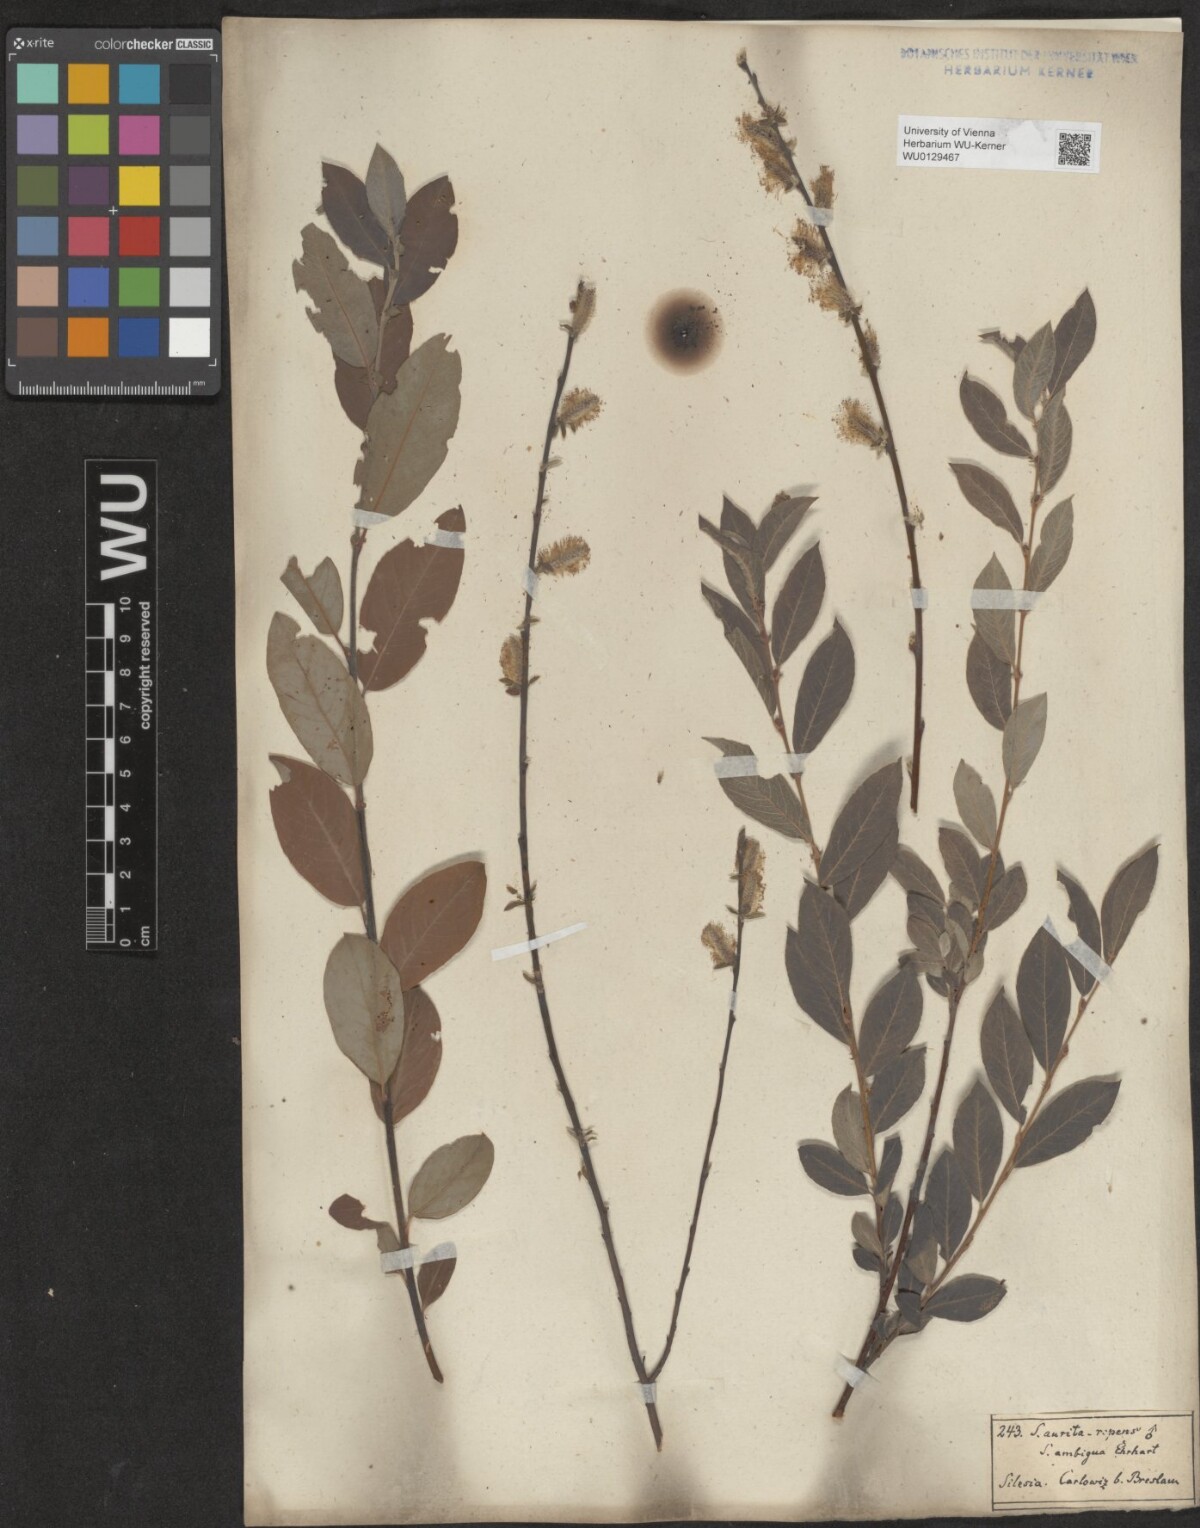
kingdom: Plantae
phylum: Tracheophyta
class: Magnoliopsida
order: Malpighiales
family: Salicaceae
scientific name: Salicaceae
